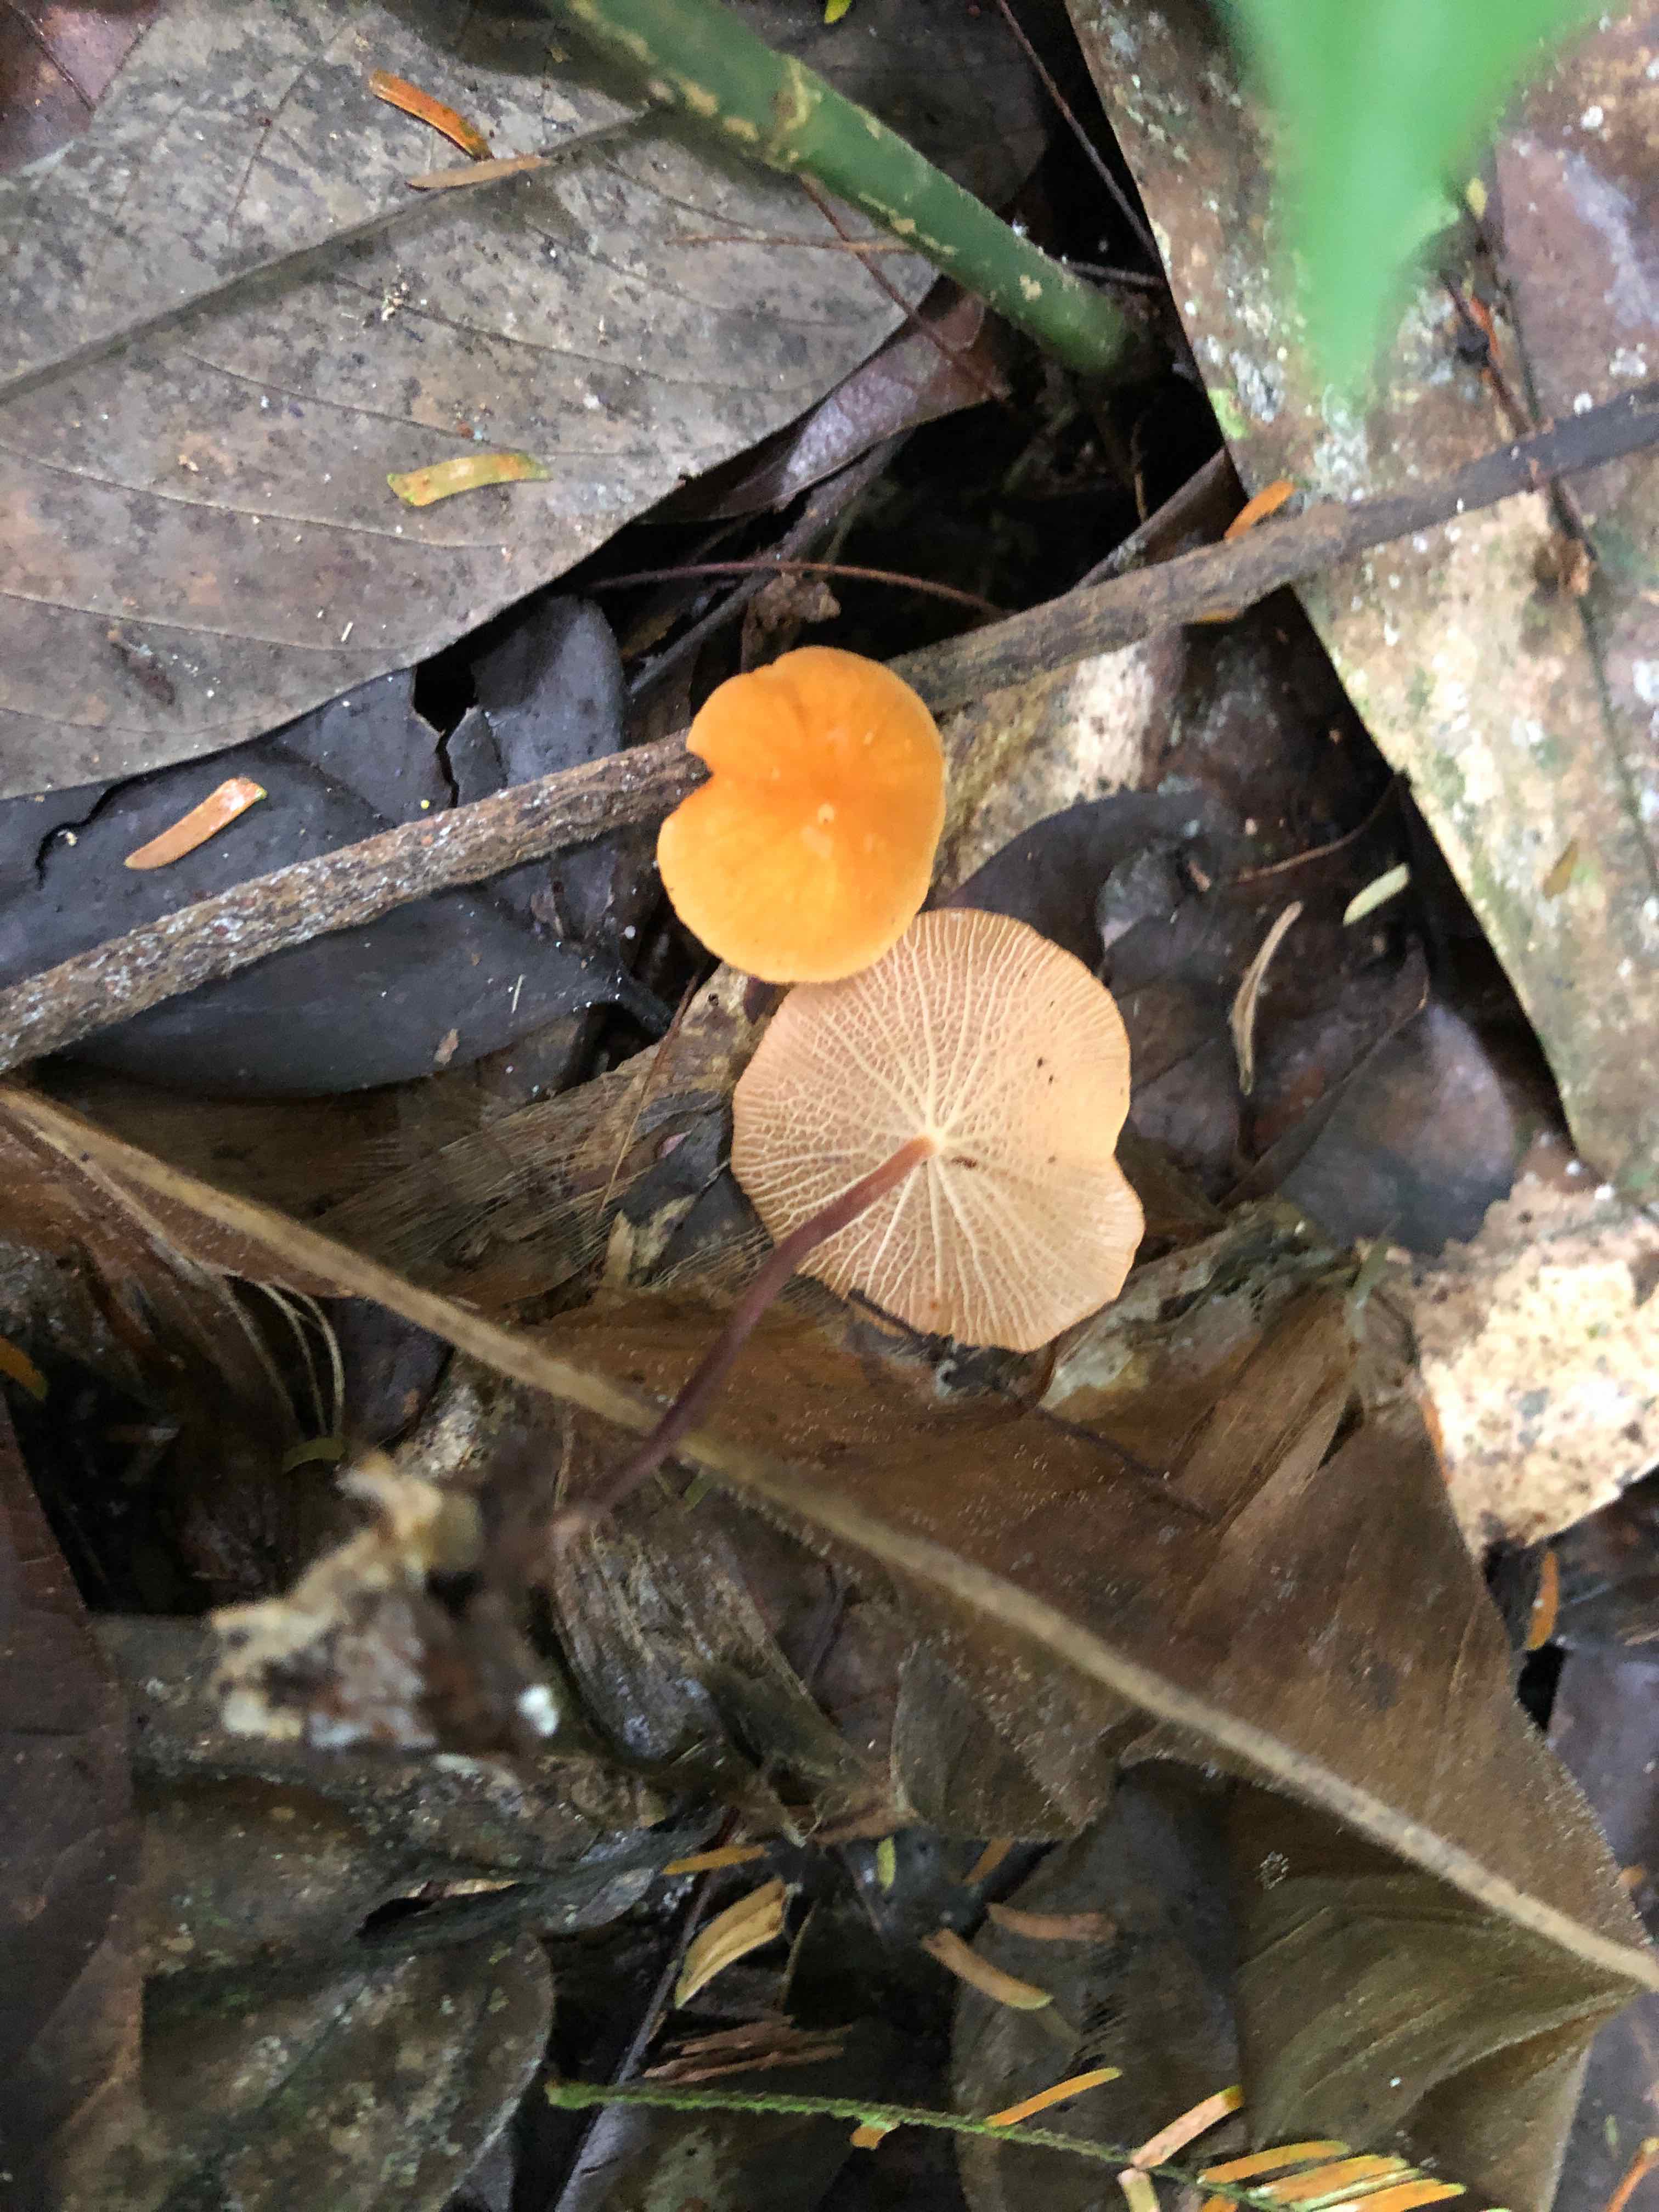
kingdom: Fungi
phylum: Basidiomycota
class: Agaricomycetes
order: Agaricales
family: Marasmiaceae
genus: Marasmius
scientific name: Marasmius cladophyllus
